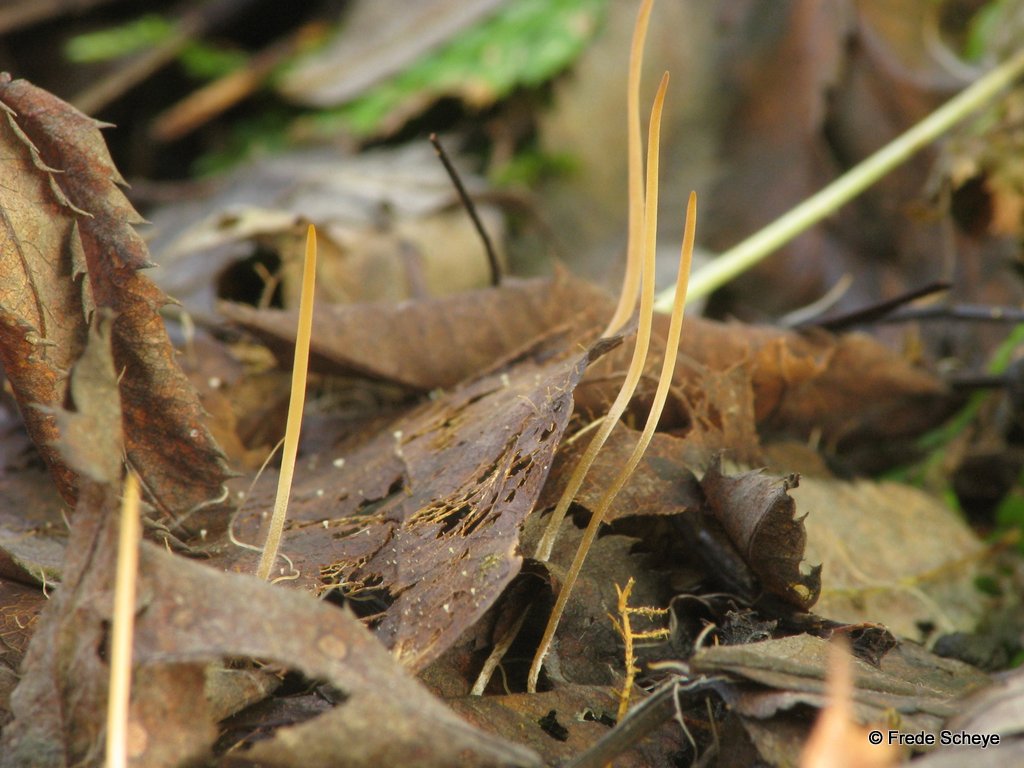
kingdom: Fungi
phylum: Basidiomycota
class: Agaricomycetes
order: Agaricales
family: Typhulaceae
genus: Typhula
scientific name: Typhula juncea
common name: trådagtig rørkølle
